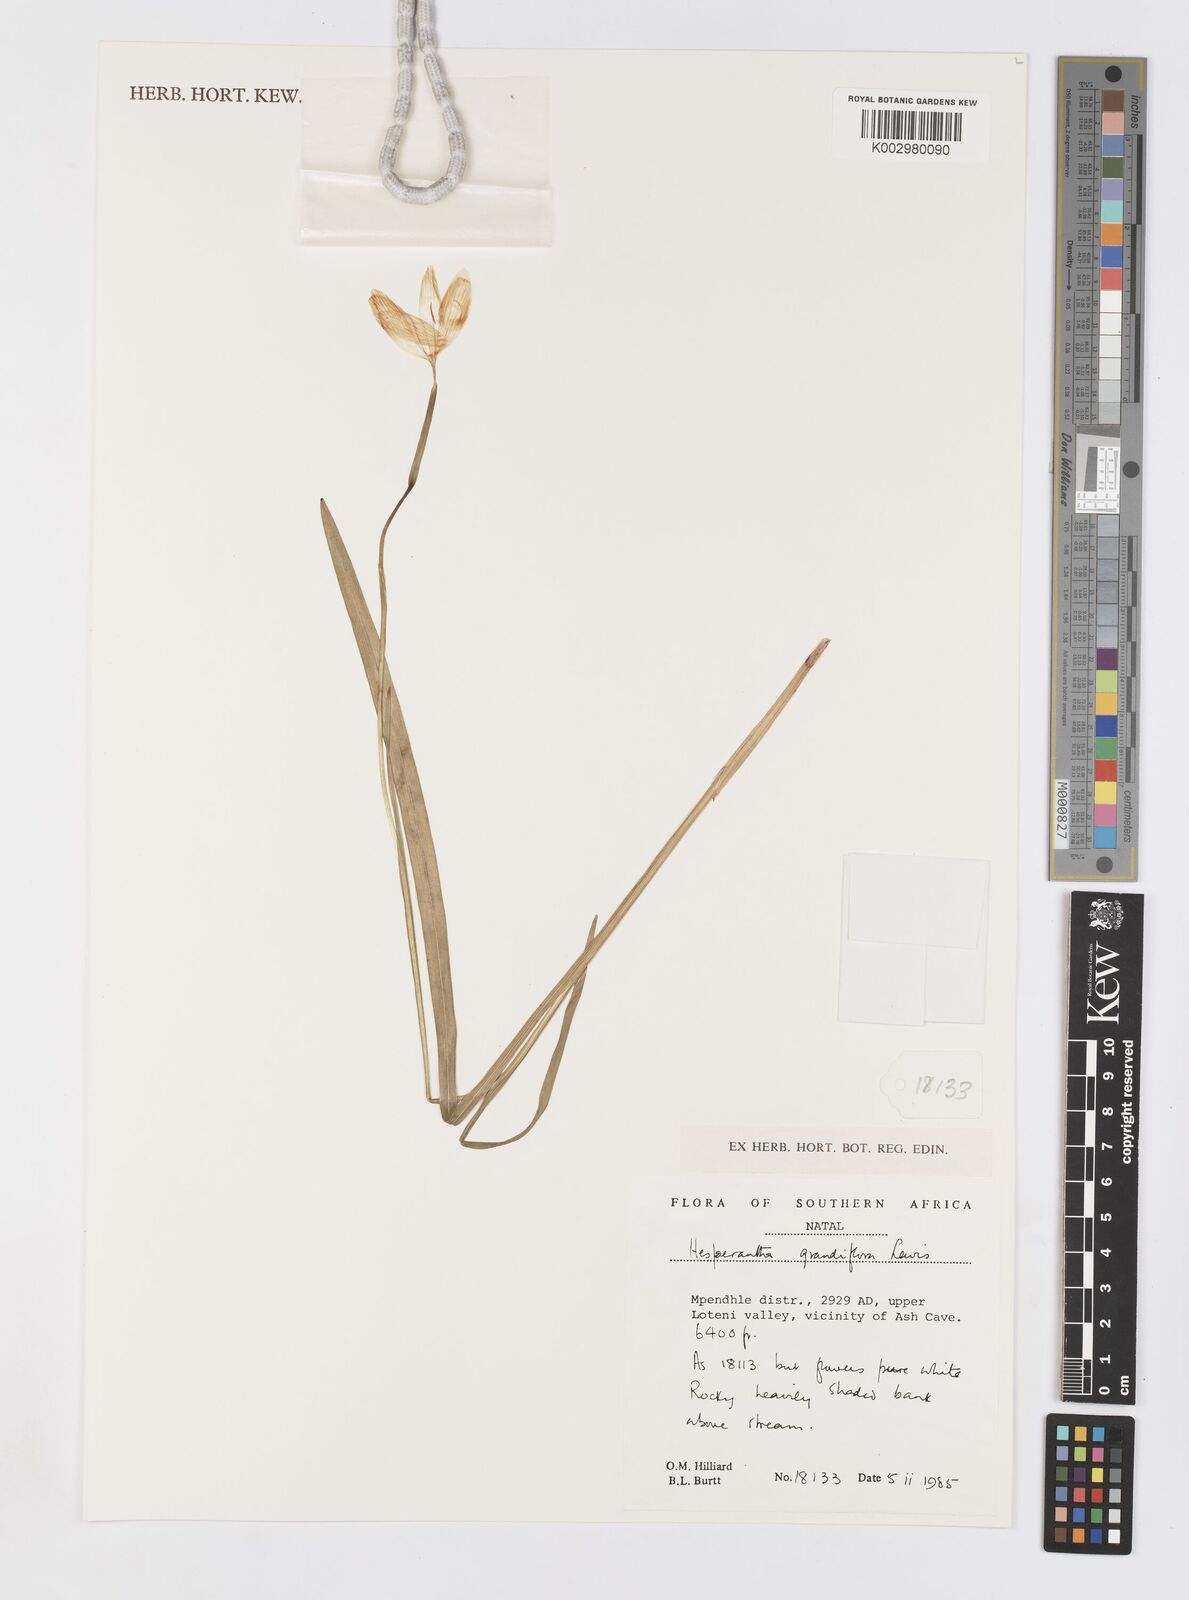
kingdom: Plantae
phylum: Tracheophyta
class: Liliopsida
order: Asparagales
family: Iridaceae
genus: Hesperantha
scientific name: Hesperantha grandiflora
